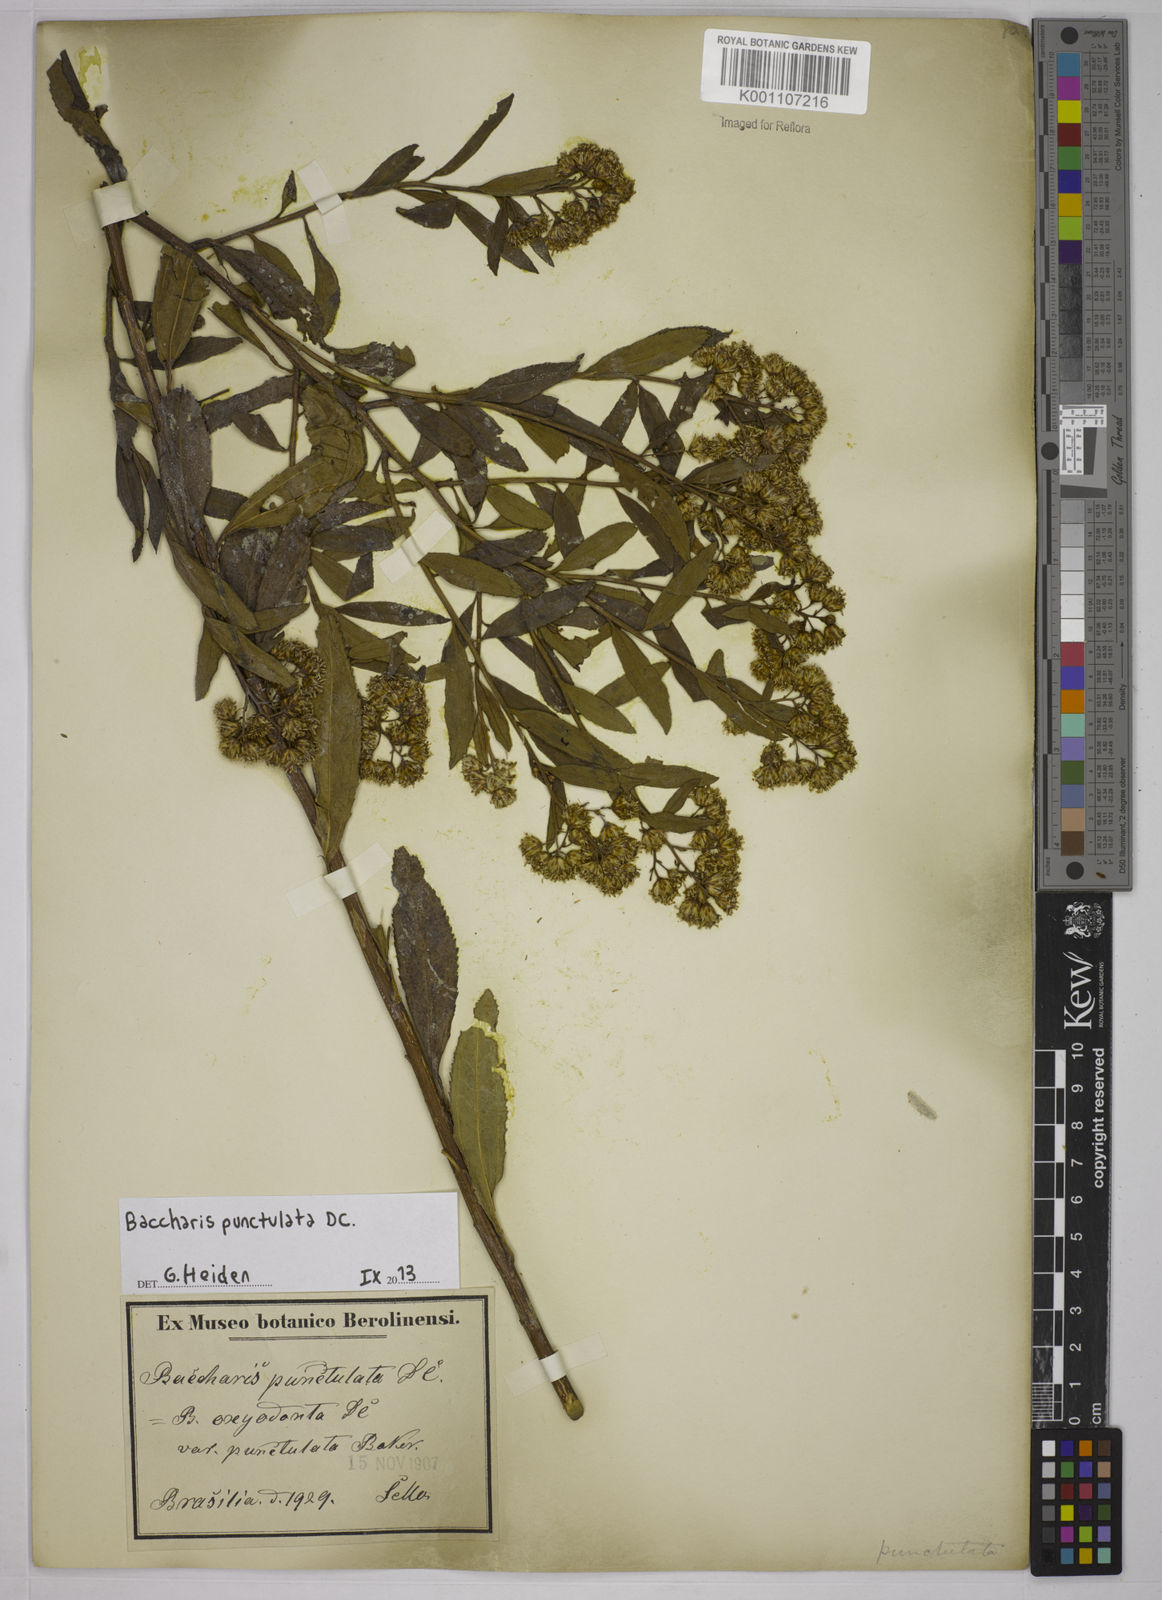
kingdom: Plantae
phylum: Tracheophyta
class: Magnoliopsida
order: Asterales
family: Asteraceae
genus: Baccharis
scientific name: Baccharis punctulata
